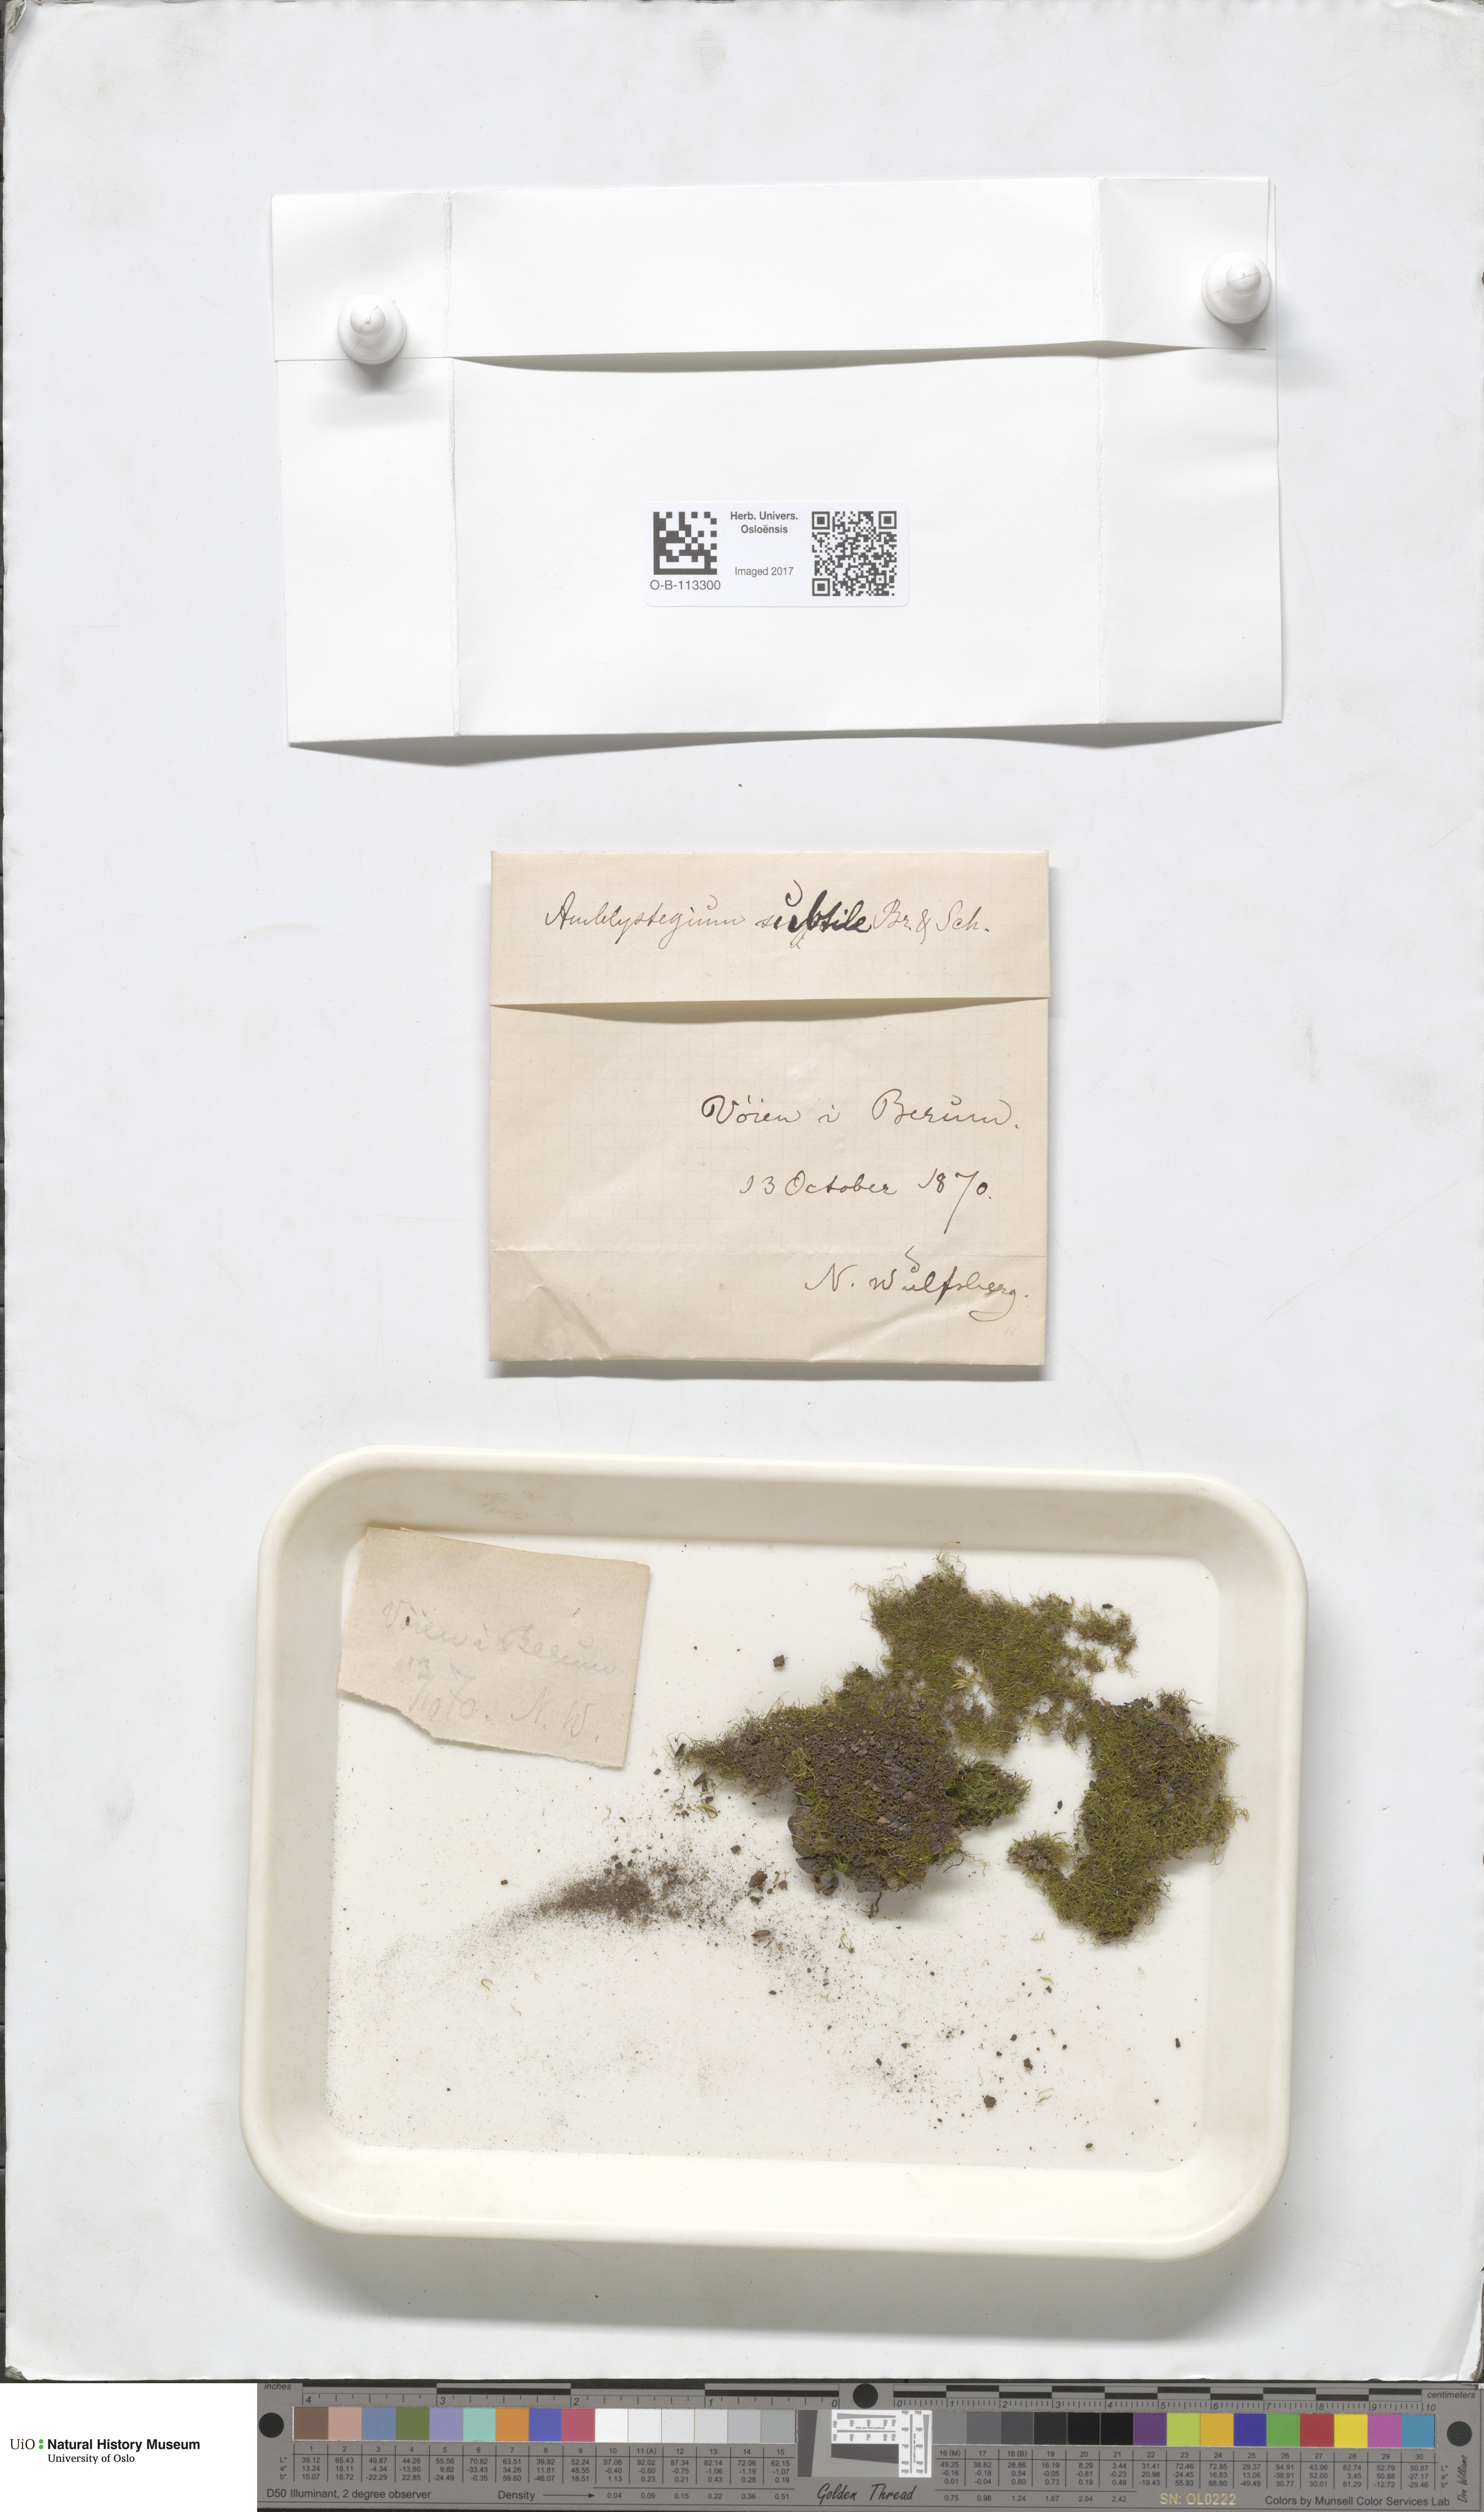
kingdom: Plantae
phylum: Bryophyta
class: Bryopsida
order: Hypnales
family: Amblystegiaceae
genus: Pseudoamblystegium
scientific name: Pseudoamblystegium subtile
